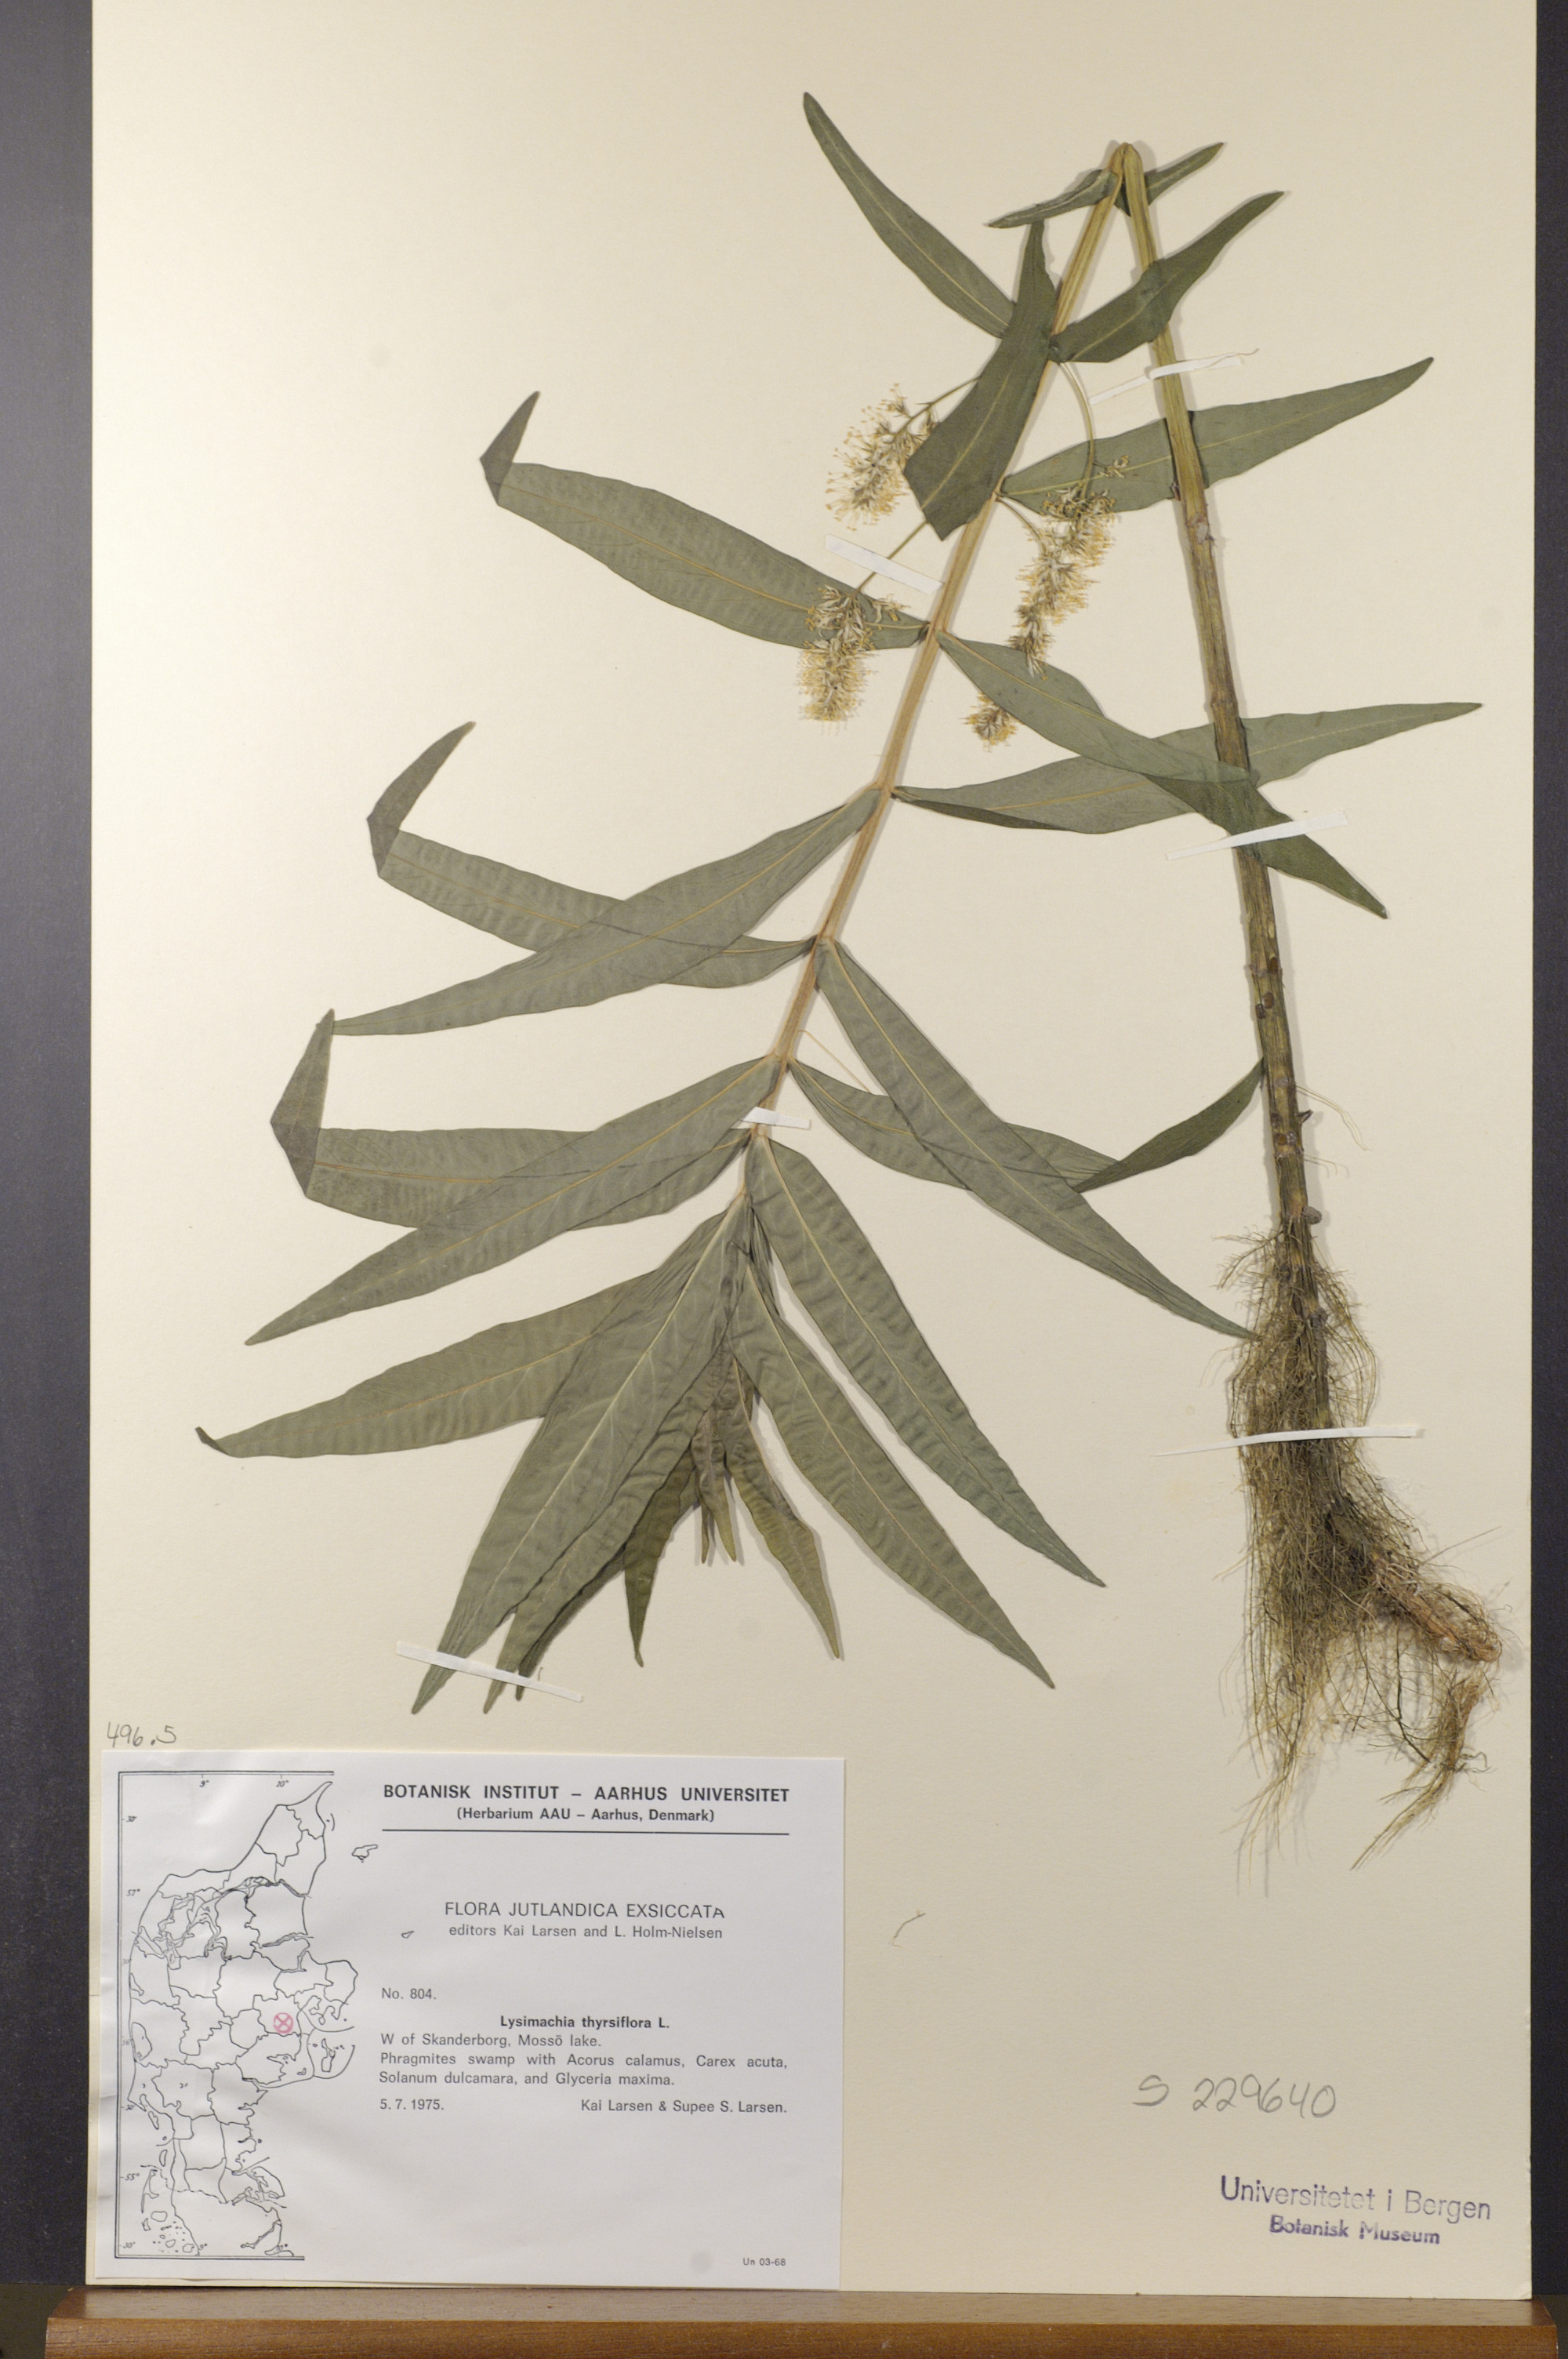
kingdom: Plantae
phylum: Tracheophyta
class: Magnoliopsida
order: Ericales
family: Primulaceae
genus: Lysimachia
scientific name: Lysimachia thyrsiflora
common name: Tufted loosestrife
